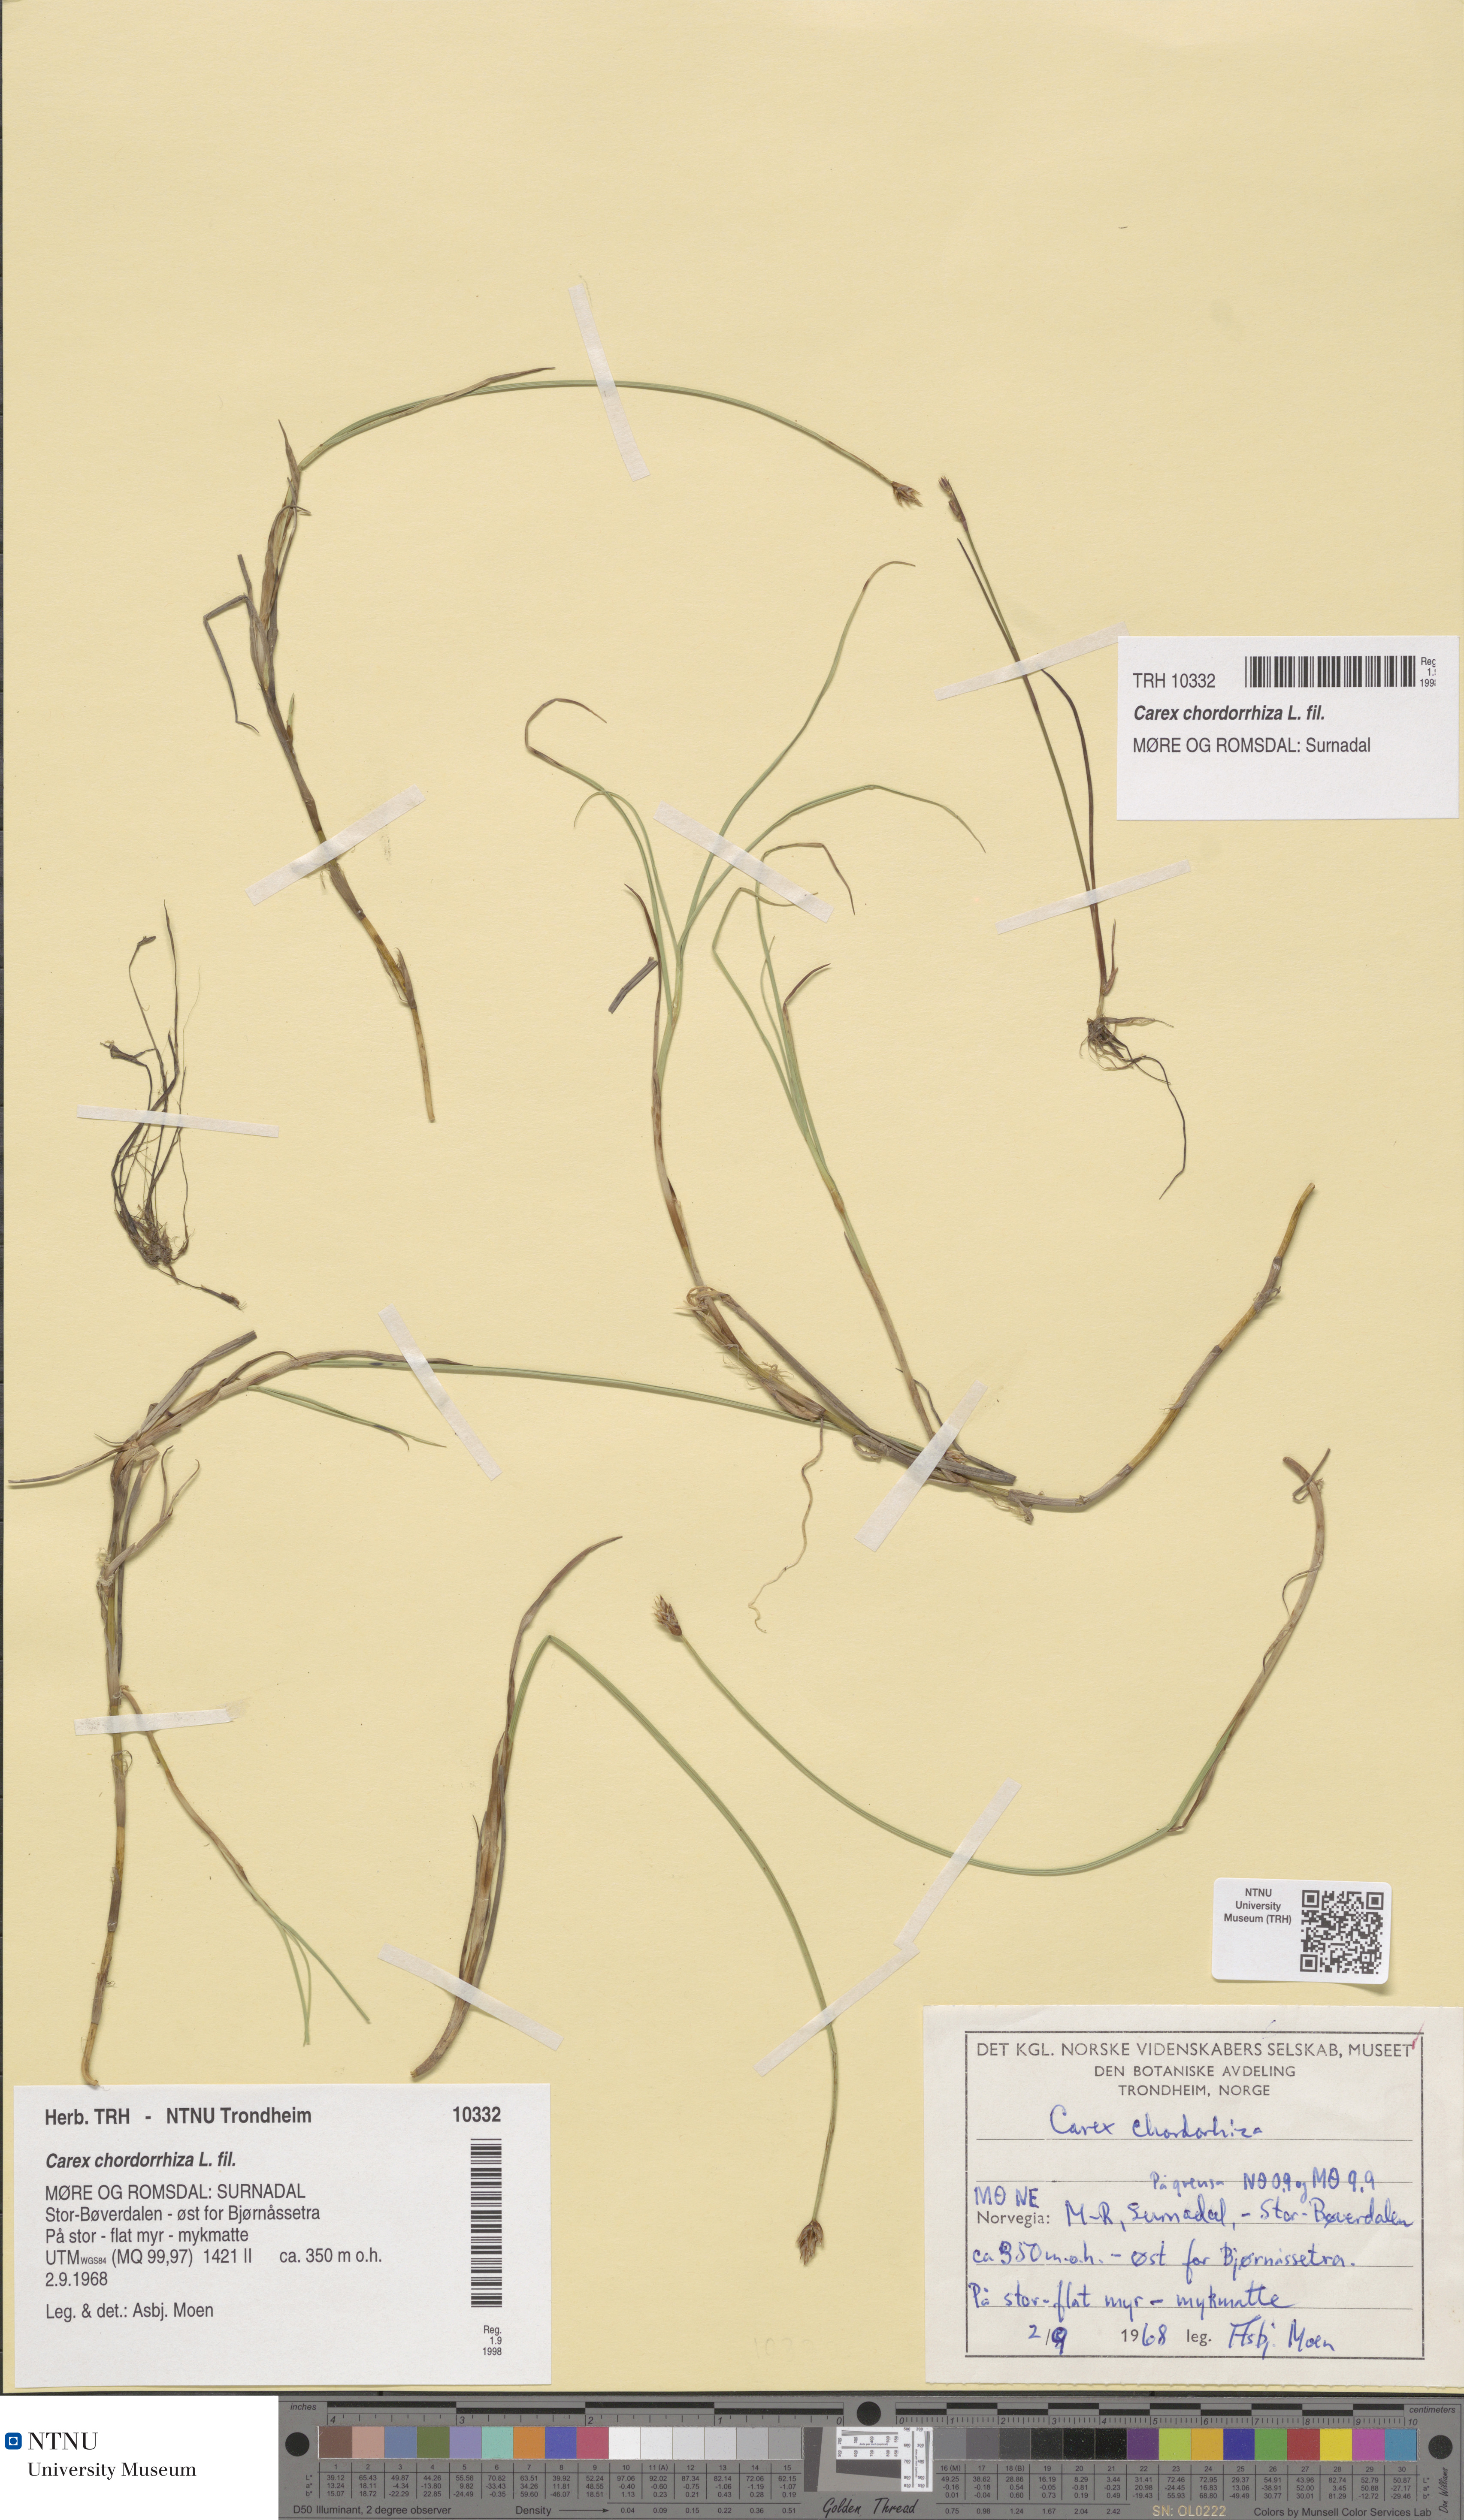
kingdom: Plantae
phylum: Tracheophyta
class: Liliopsida
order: Poales
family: Cyperaceae
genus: Carex
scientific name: Carex chordorrhiza
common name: String sedge
